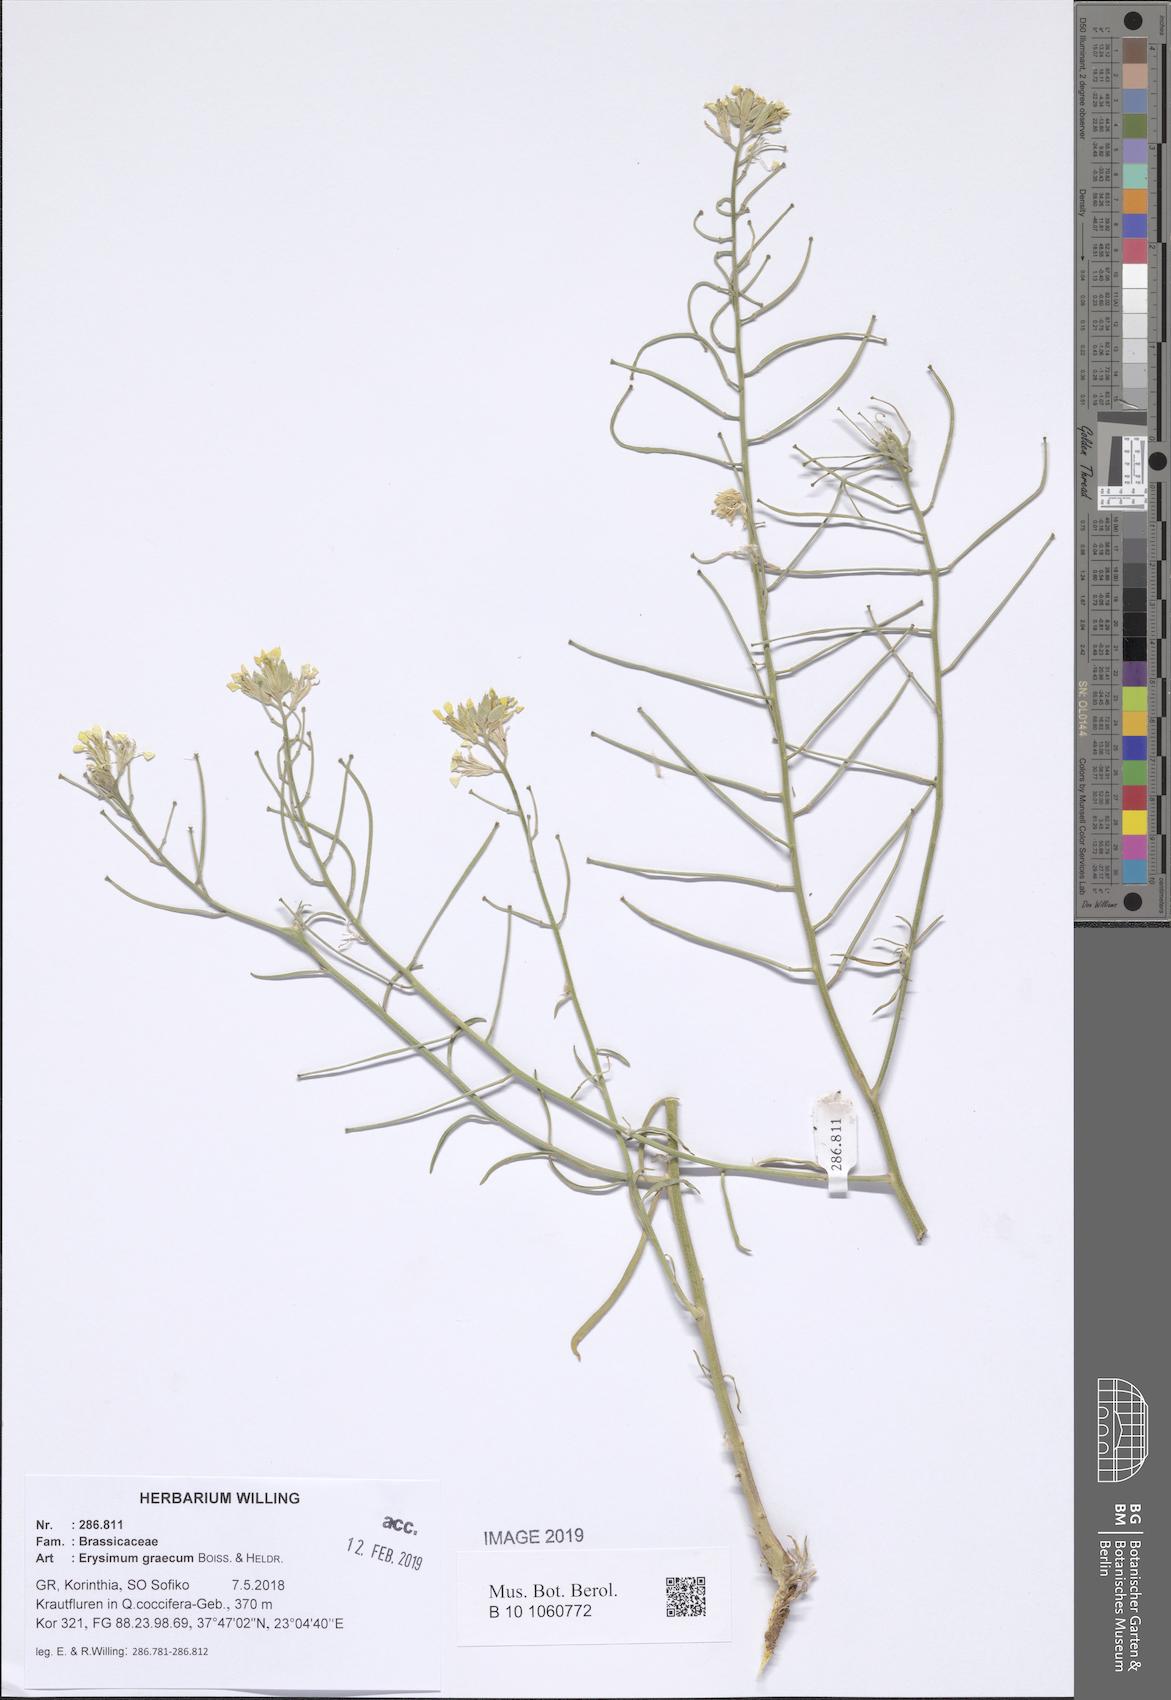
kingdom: Plantae
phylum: Tracheophyta
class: Magnoliopsida
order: Brassicales
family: Brassicaceae
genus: Erysimum
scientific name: Erysimum graecum
